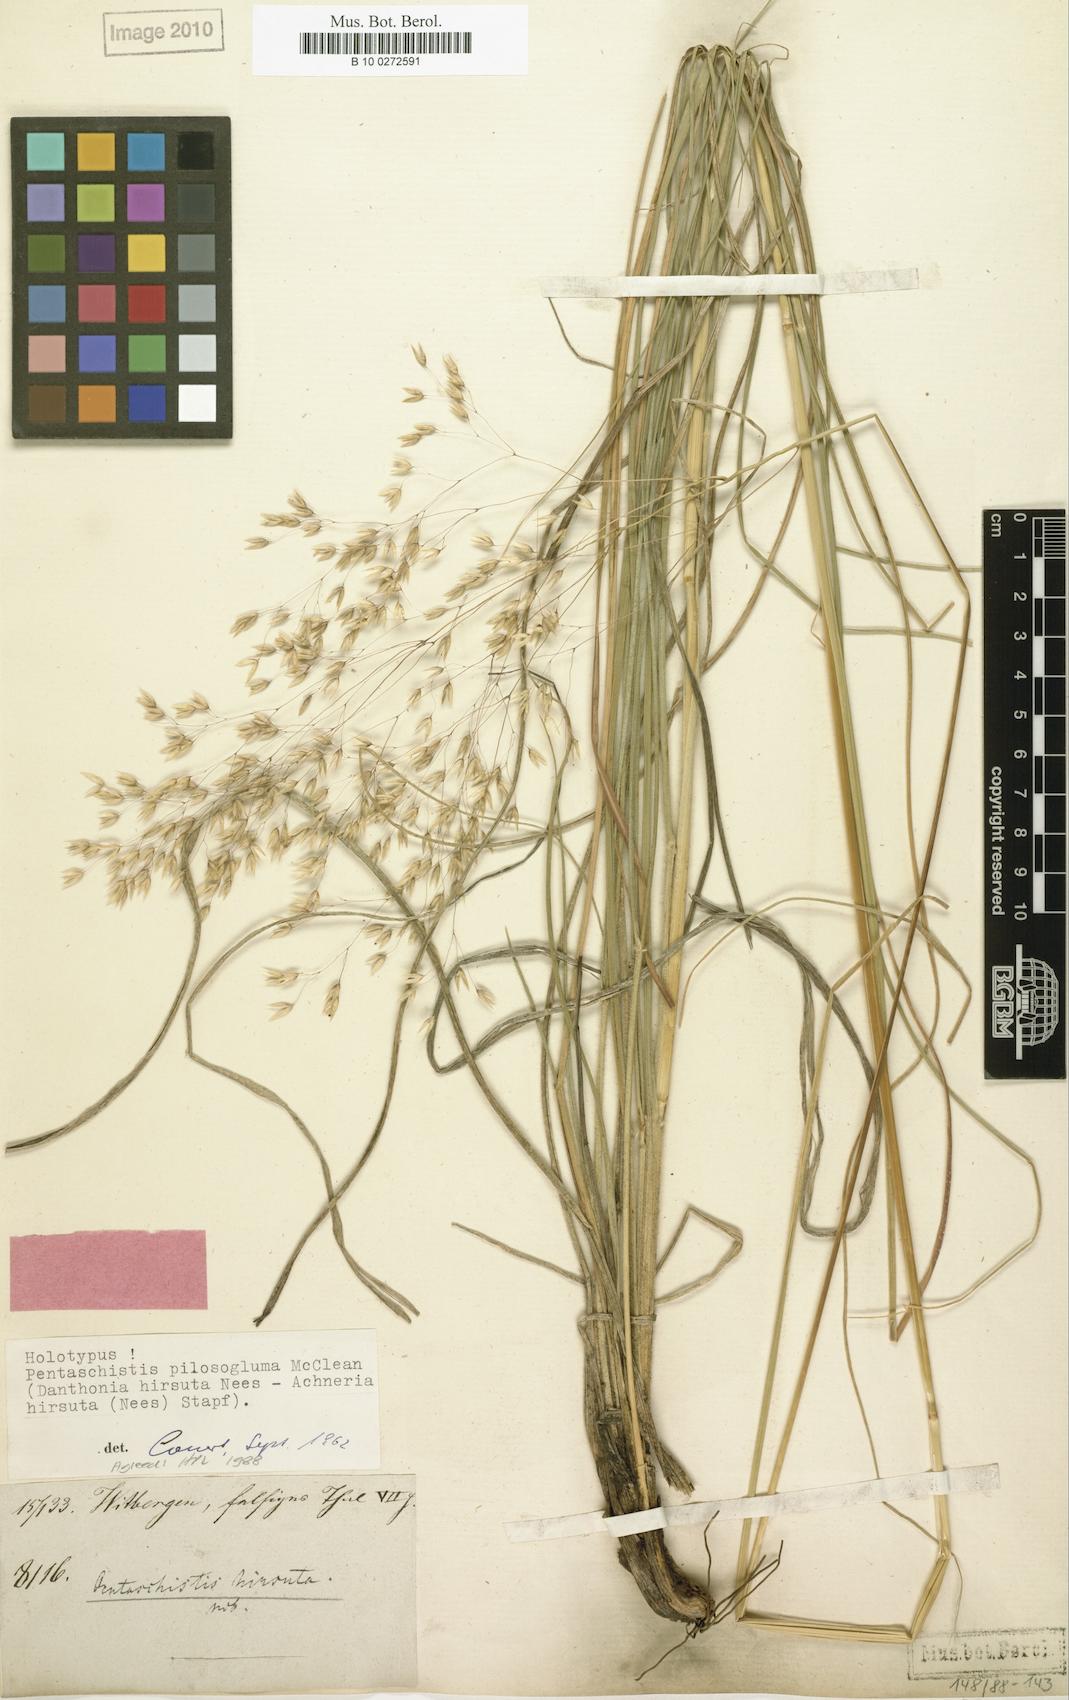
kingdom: Plantae
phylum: Tracheophyta
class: Liliopsida
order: Poales
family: Poaceae
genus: Pentameris
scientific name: Pentameris aurea
